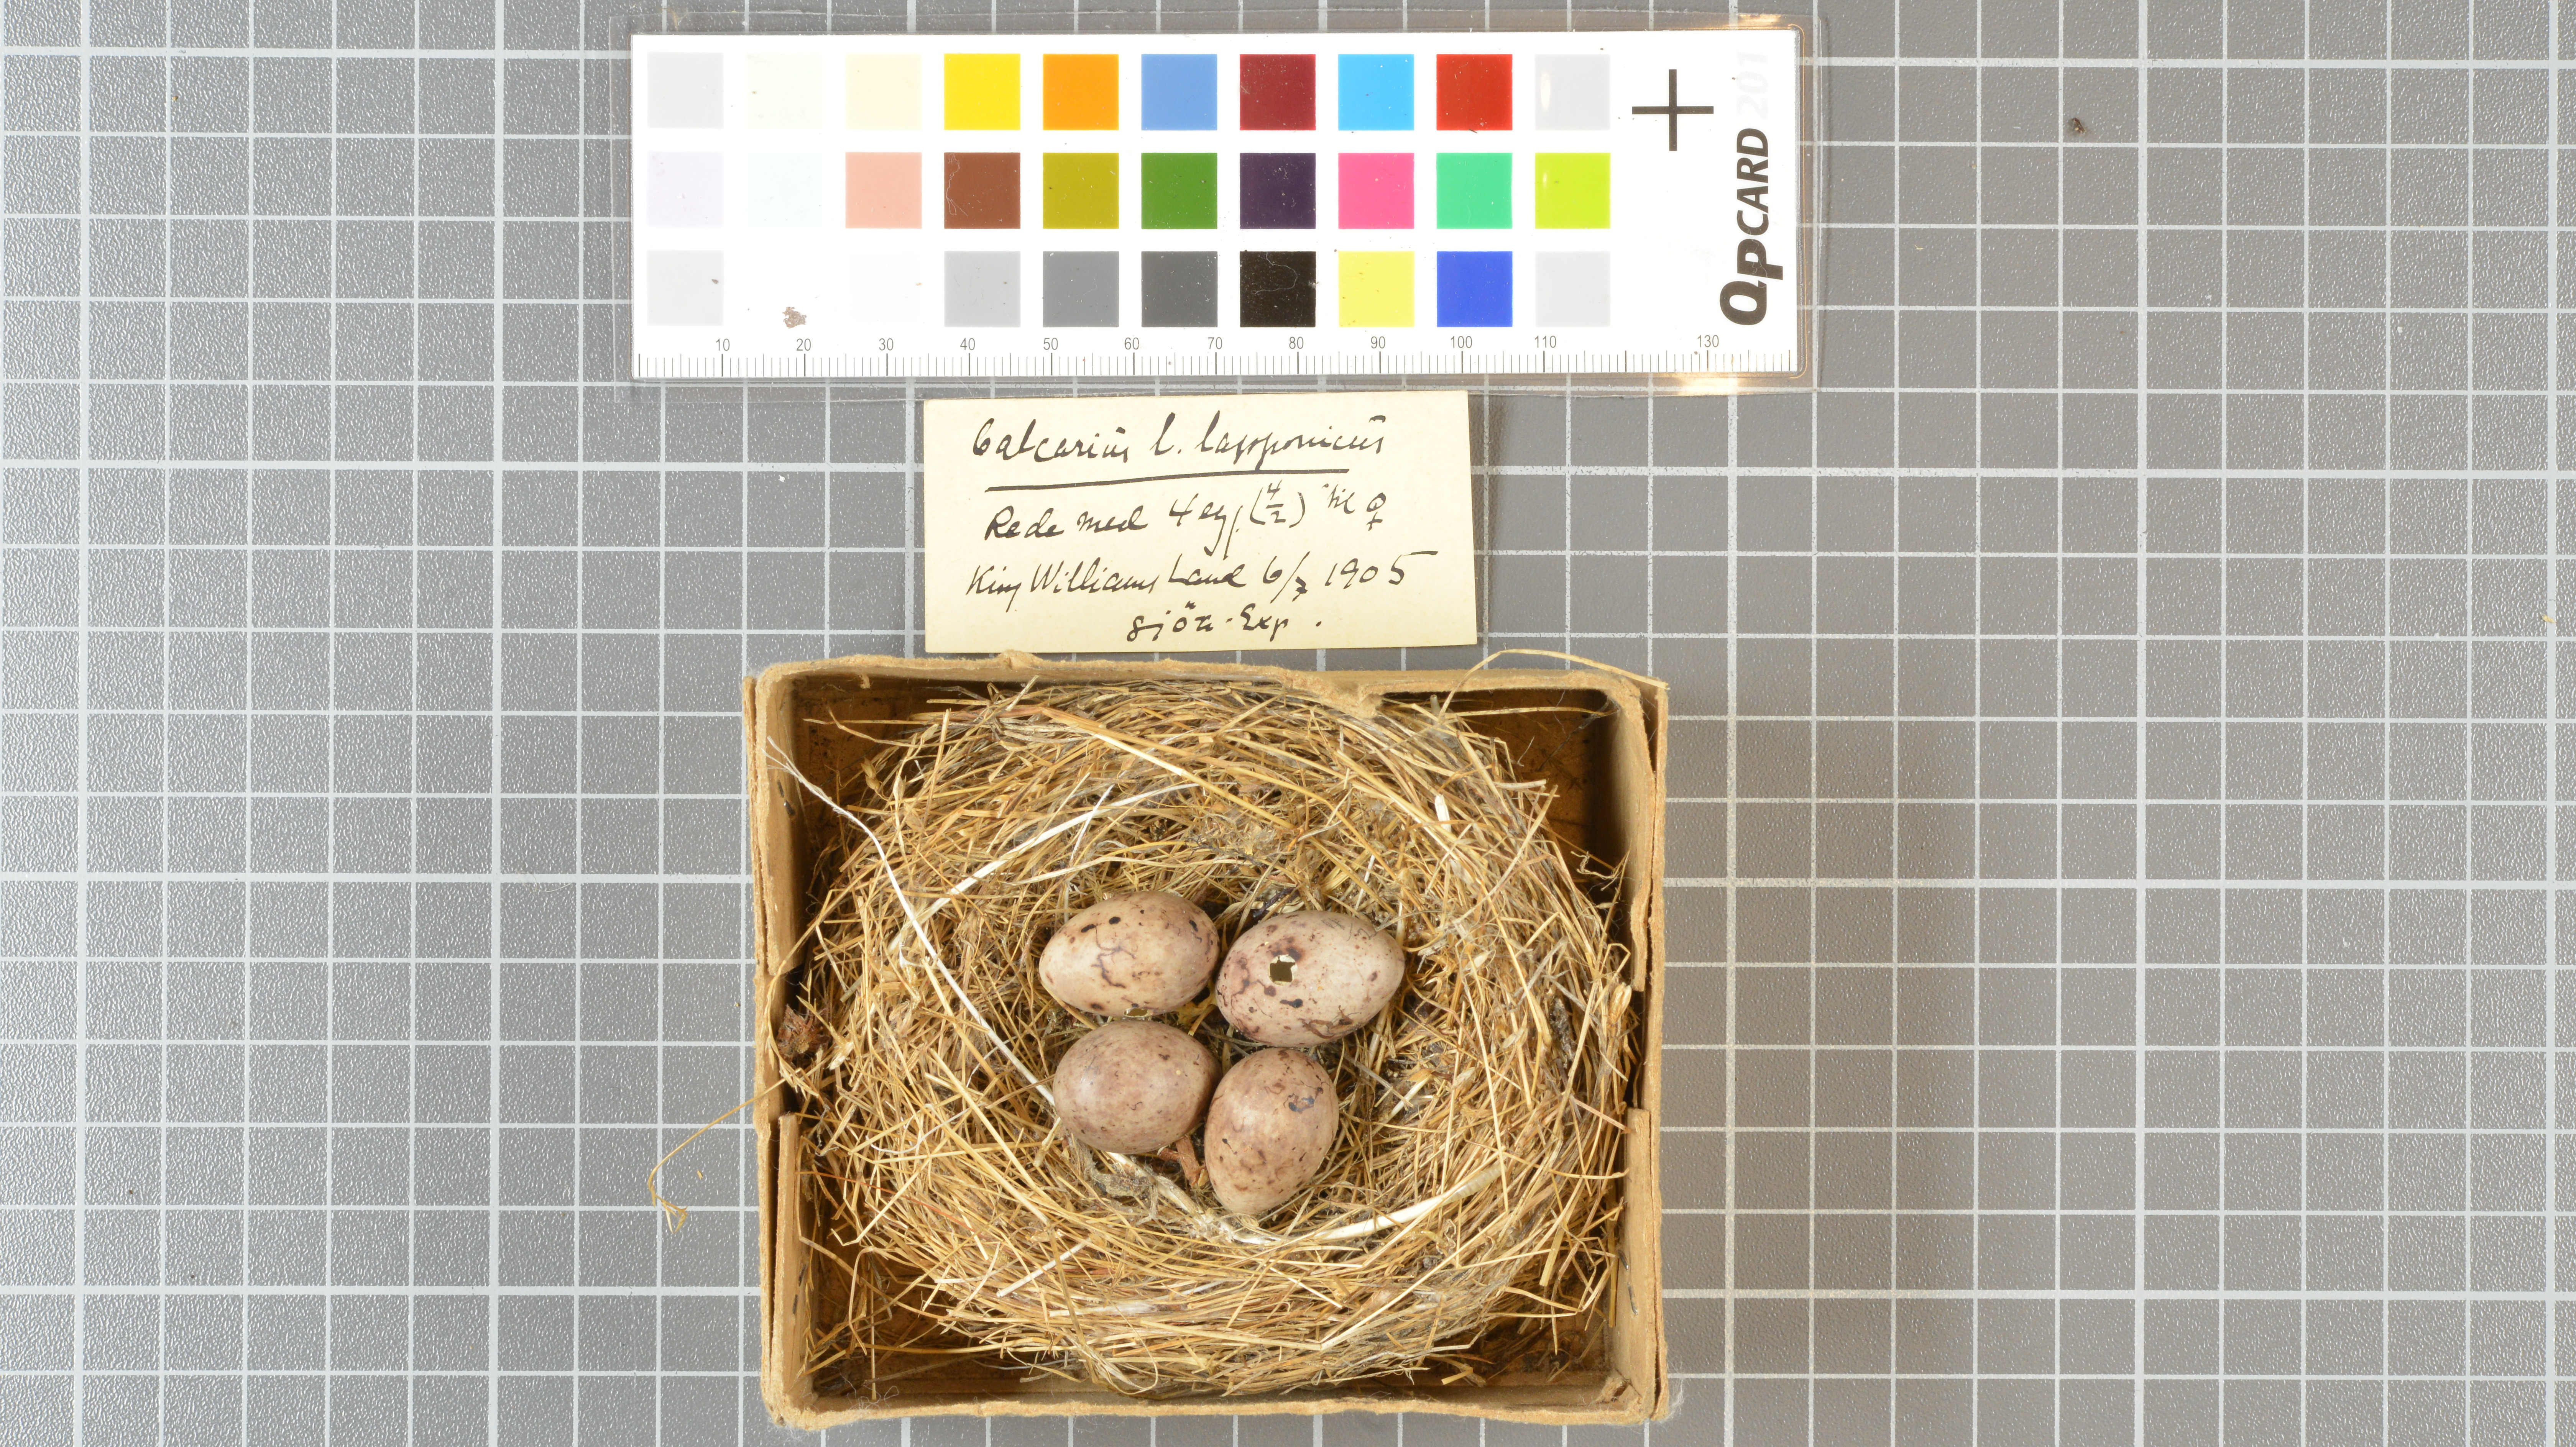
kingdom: Animalia
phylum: Chordata
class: Aves
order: Passeriformes
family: Calcariidae
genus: Calcarius
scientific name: Calcarius lapponicus
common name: Lapland longspur
